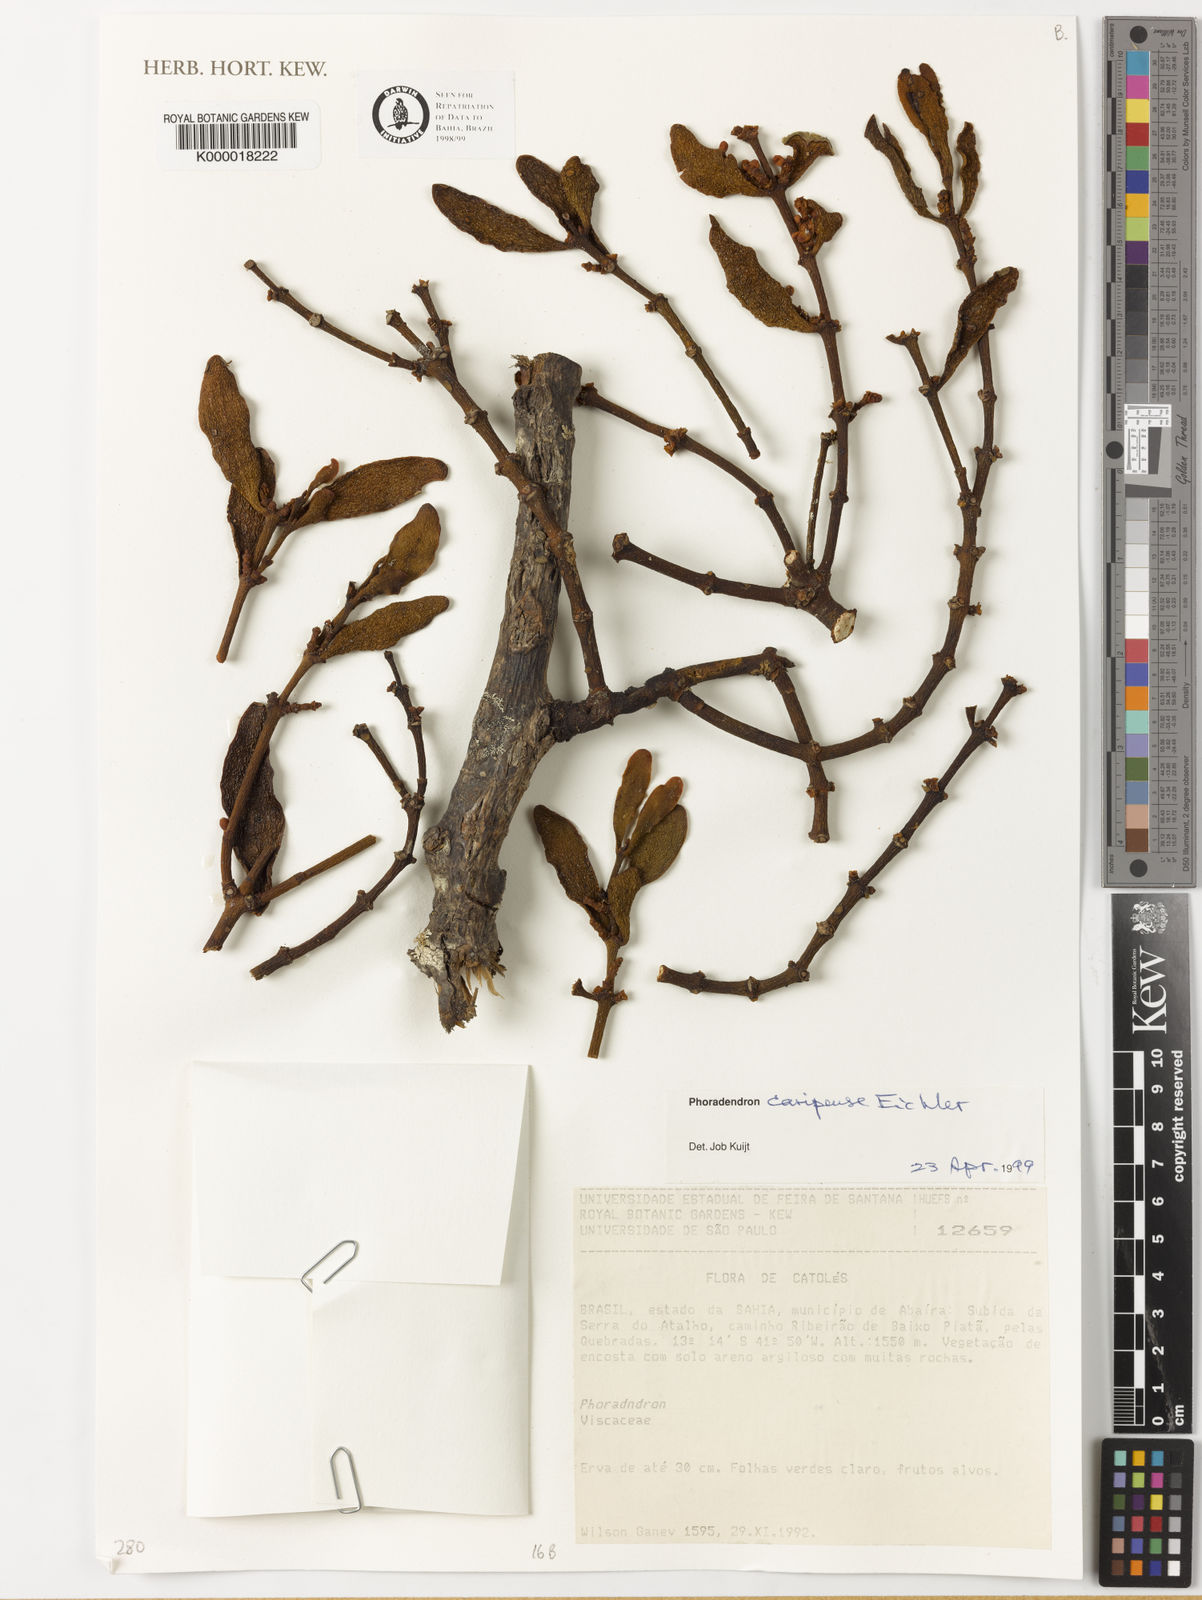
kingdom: Plantae
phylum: Tracheophyta
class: Magnoliopsida
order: Santalales
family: Viscaceae
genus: Phoradendron
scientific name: Phoradendron caripense
